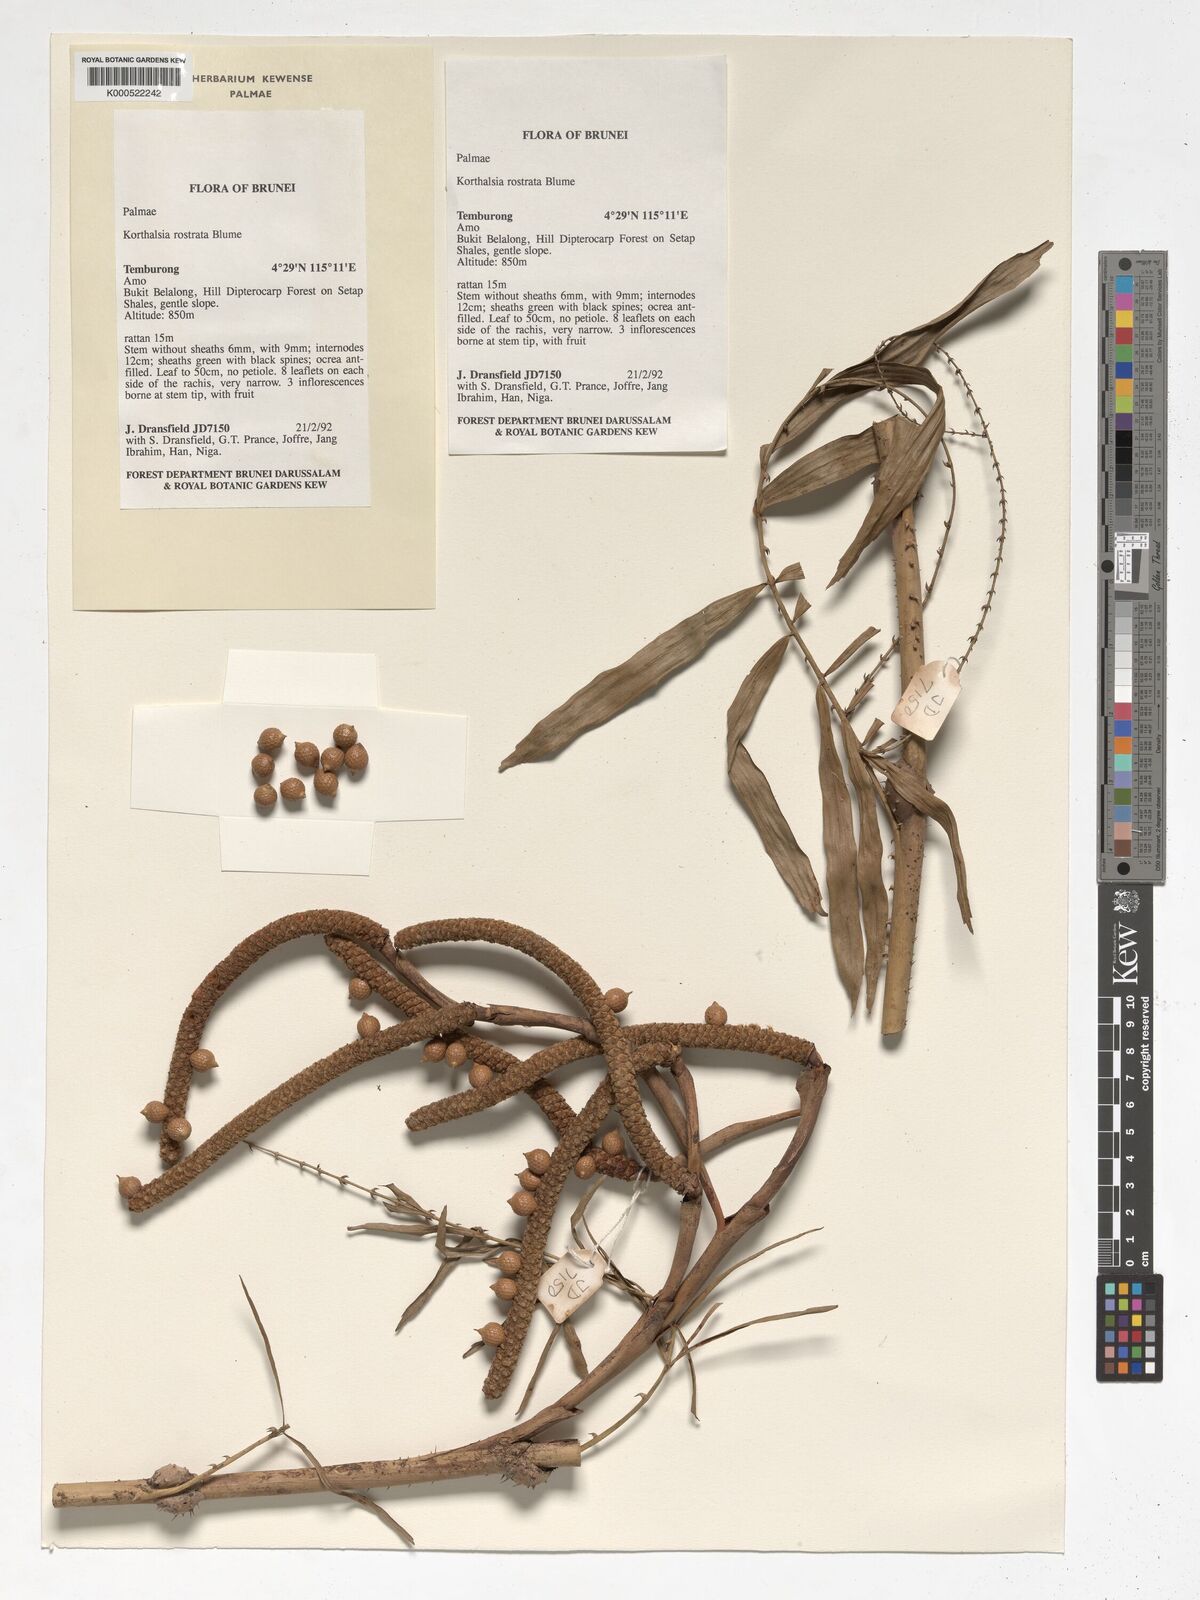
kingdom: Plantae
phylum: Tracheophyta
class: Liliopsida
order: Arecales
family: Arecaceae
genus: Korthalsia
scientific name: Korthalsia rostrata
